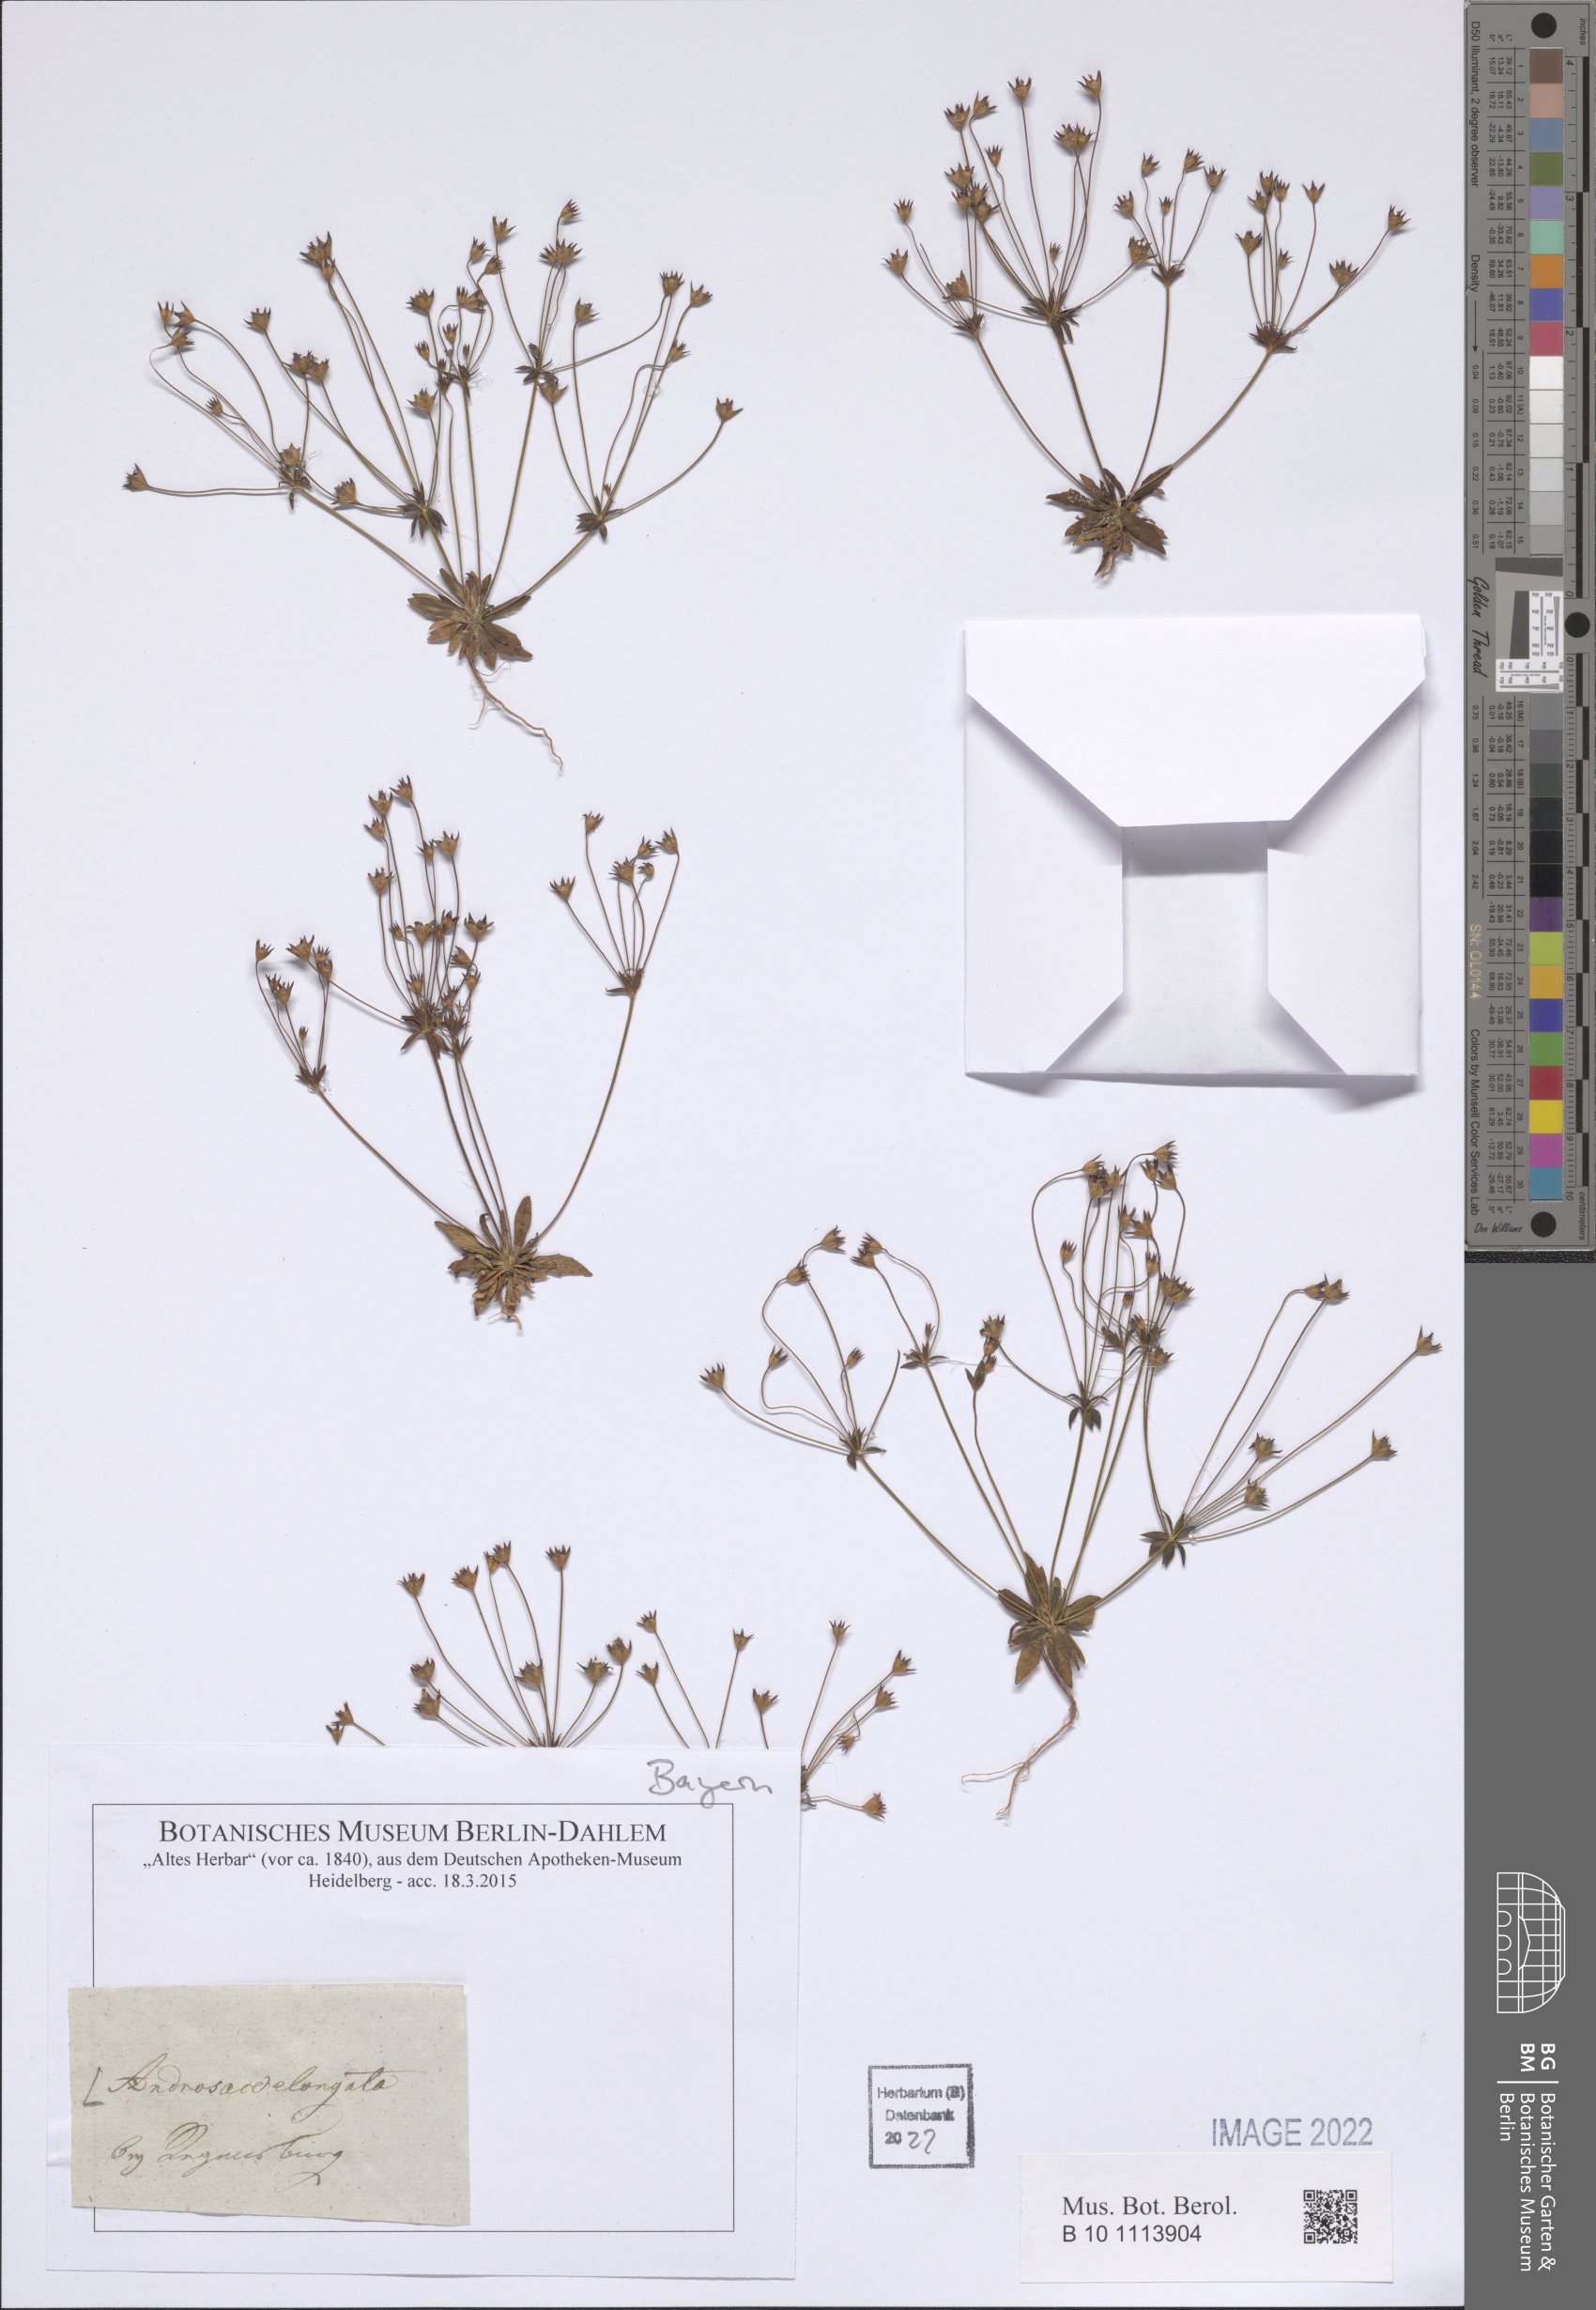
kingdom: Plantae
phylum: Tracheophyta
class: Magnoliopsida
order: Ericales
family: Primulaceae
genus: Androsace
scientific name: Androsace elongata
